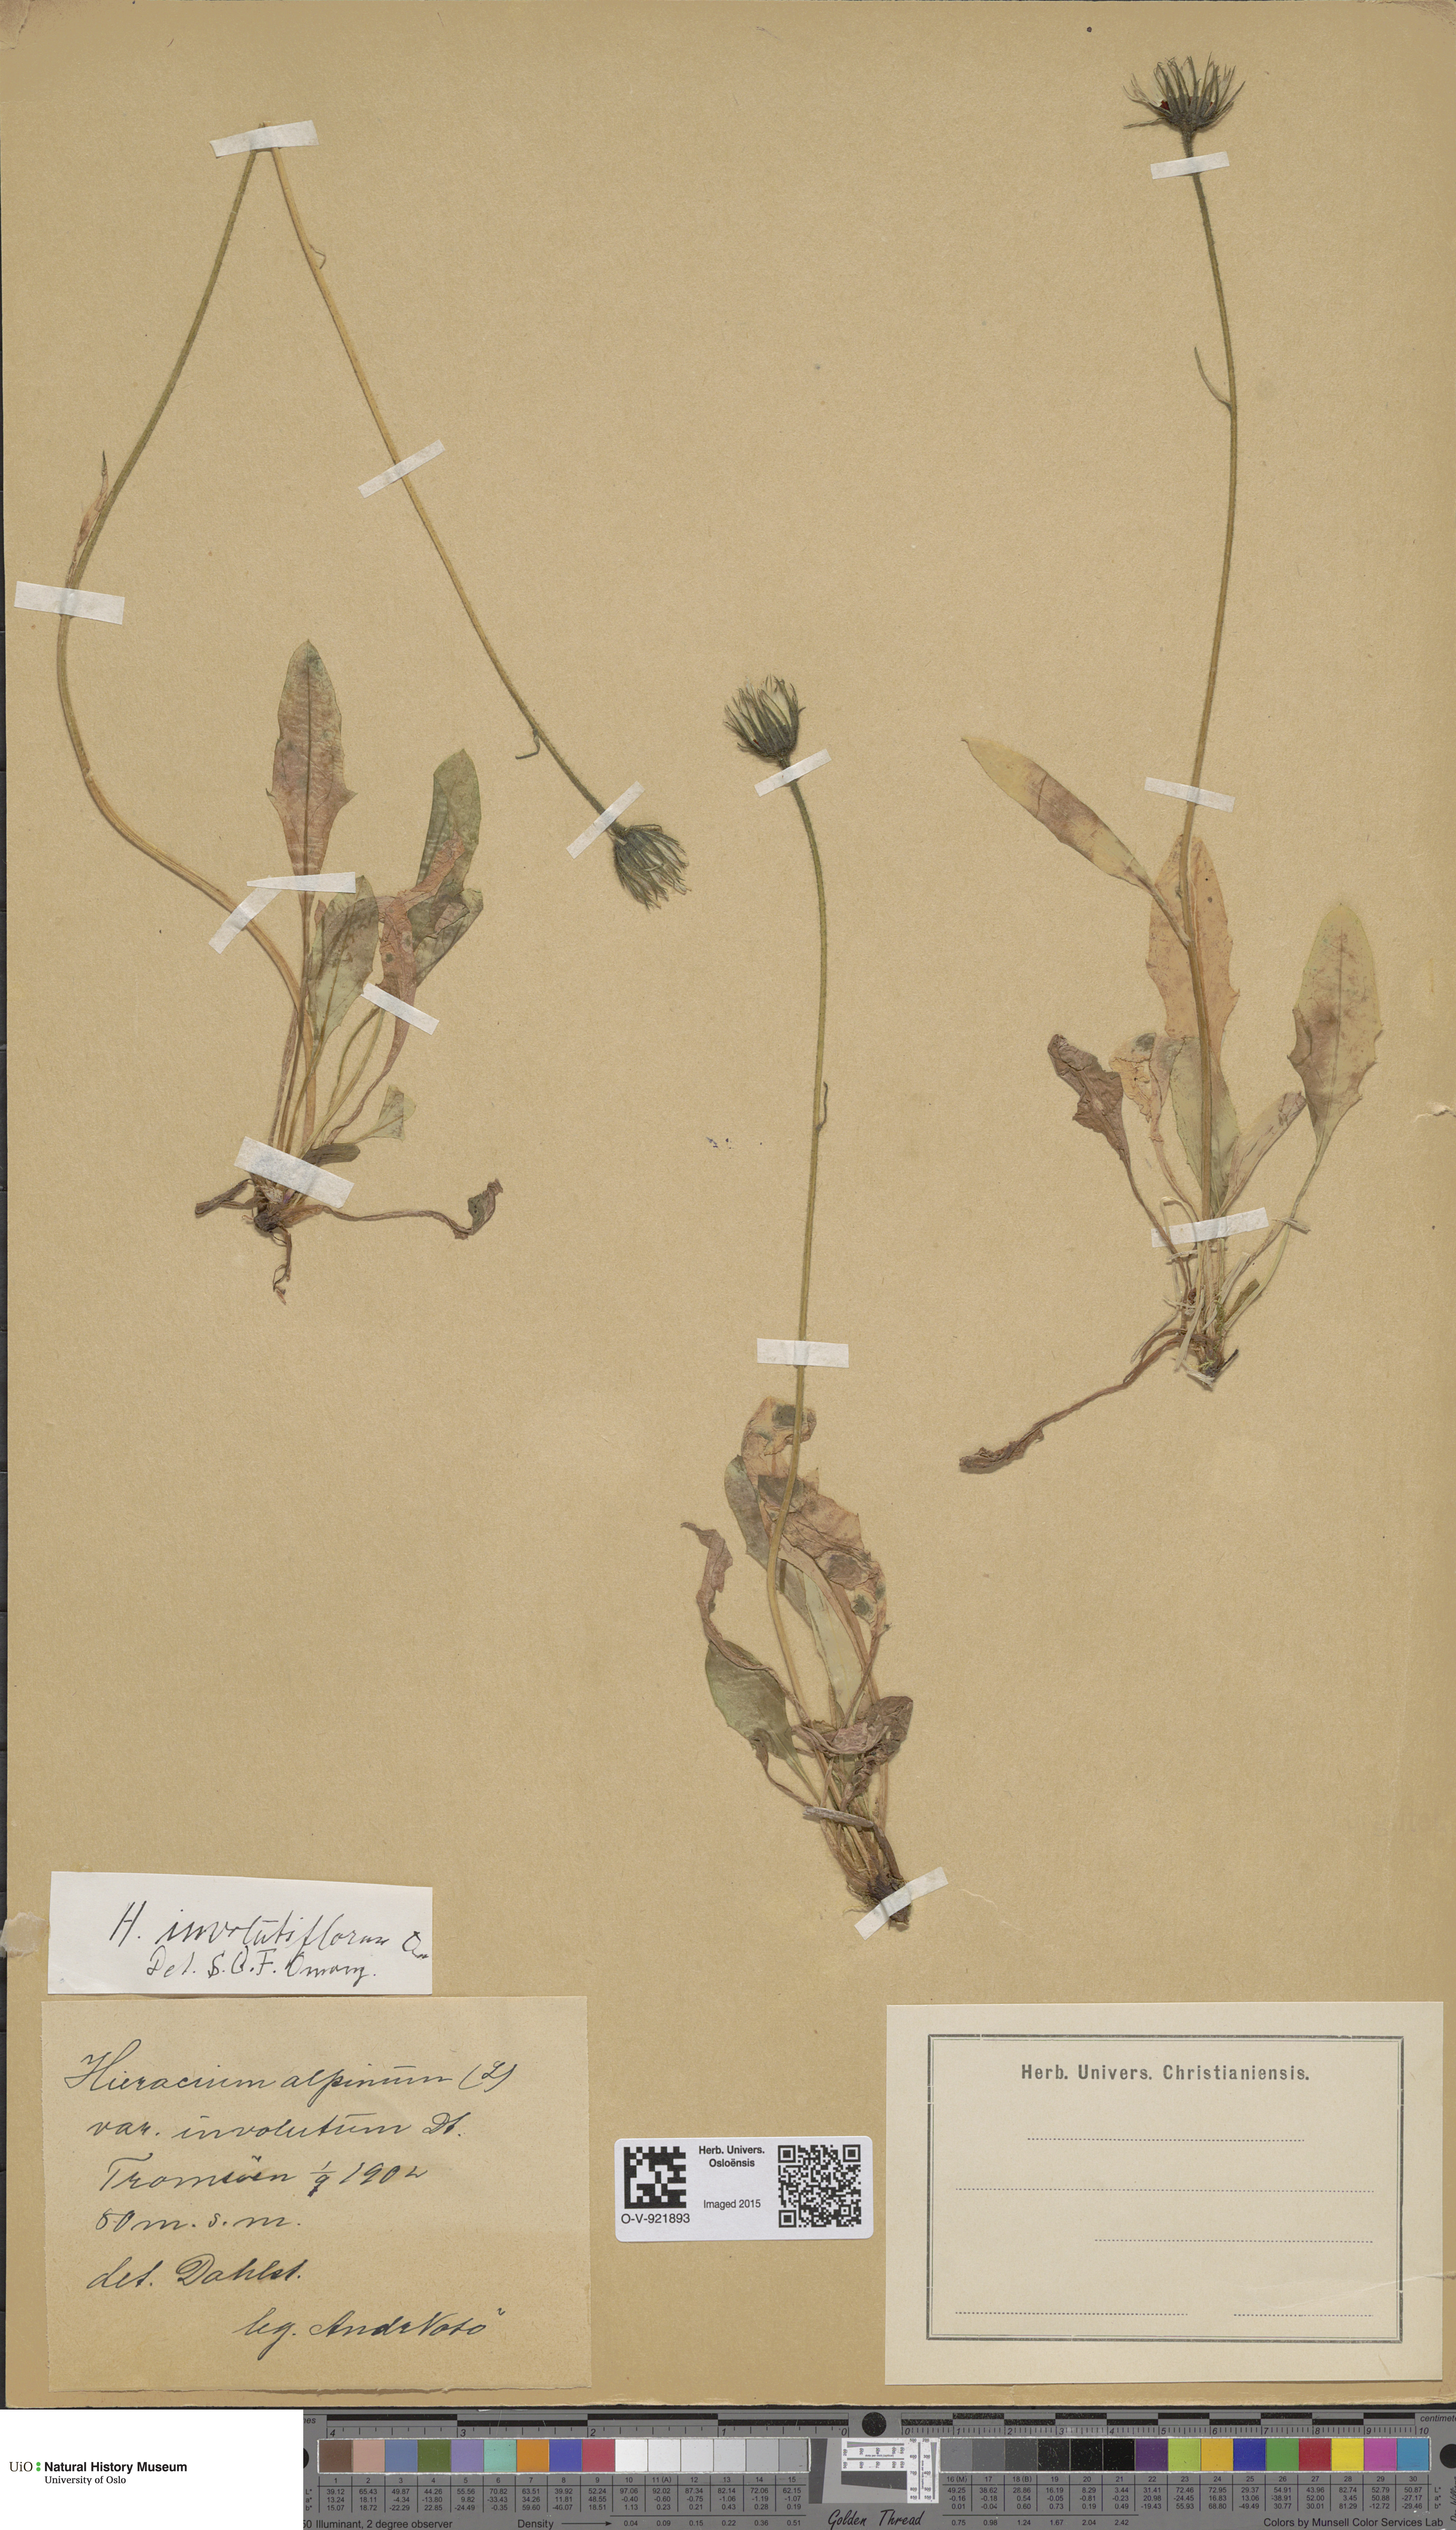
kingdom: Plantae
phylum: Tracheophyta
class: Magnoliopsida
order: Asterales
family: Asteraceae
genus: Hieracium
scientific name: Hieracium alpinum
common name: Alpine hawkweed
